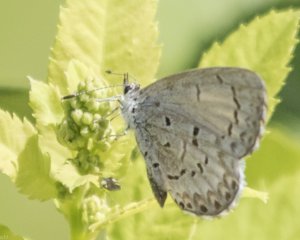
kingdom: Animalia
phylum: Arthropoda
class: Insecta
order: Lepidoptera
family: Lycaenidae
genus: Cyaniris
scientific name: Cyaniris neglecta
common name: Summer Azure
